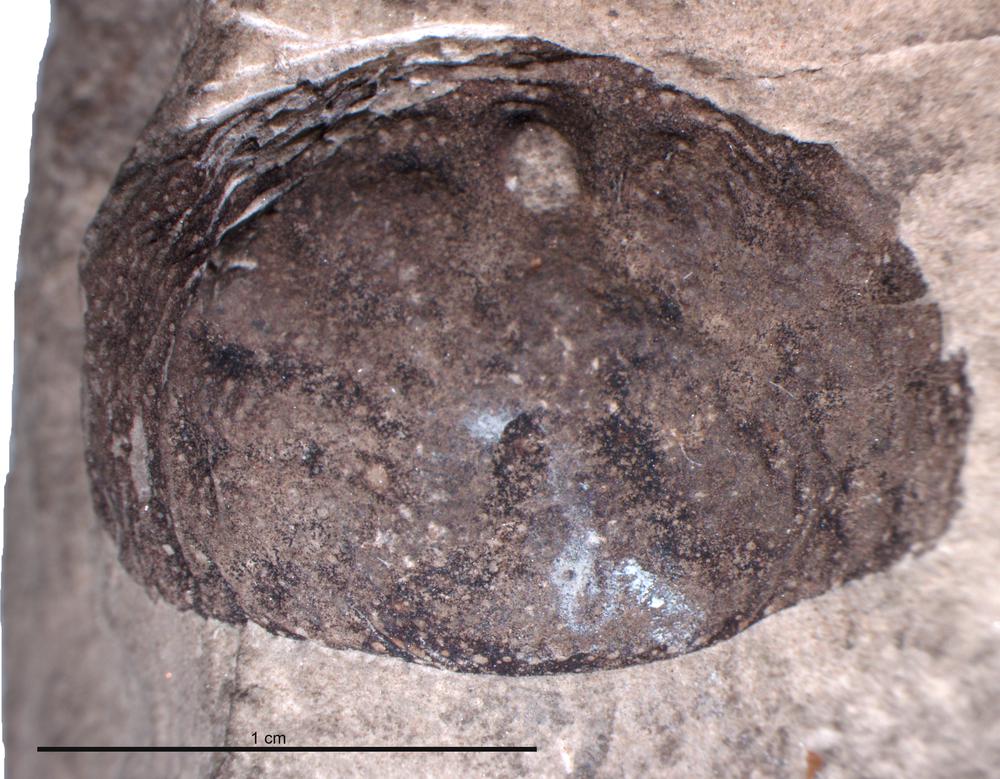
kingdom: Animalia
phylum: Cnidaria
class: Anthozoa
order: Actiniaria
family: Actiniidae
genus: Bunodes
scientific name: Bunodes
